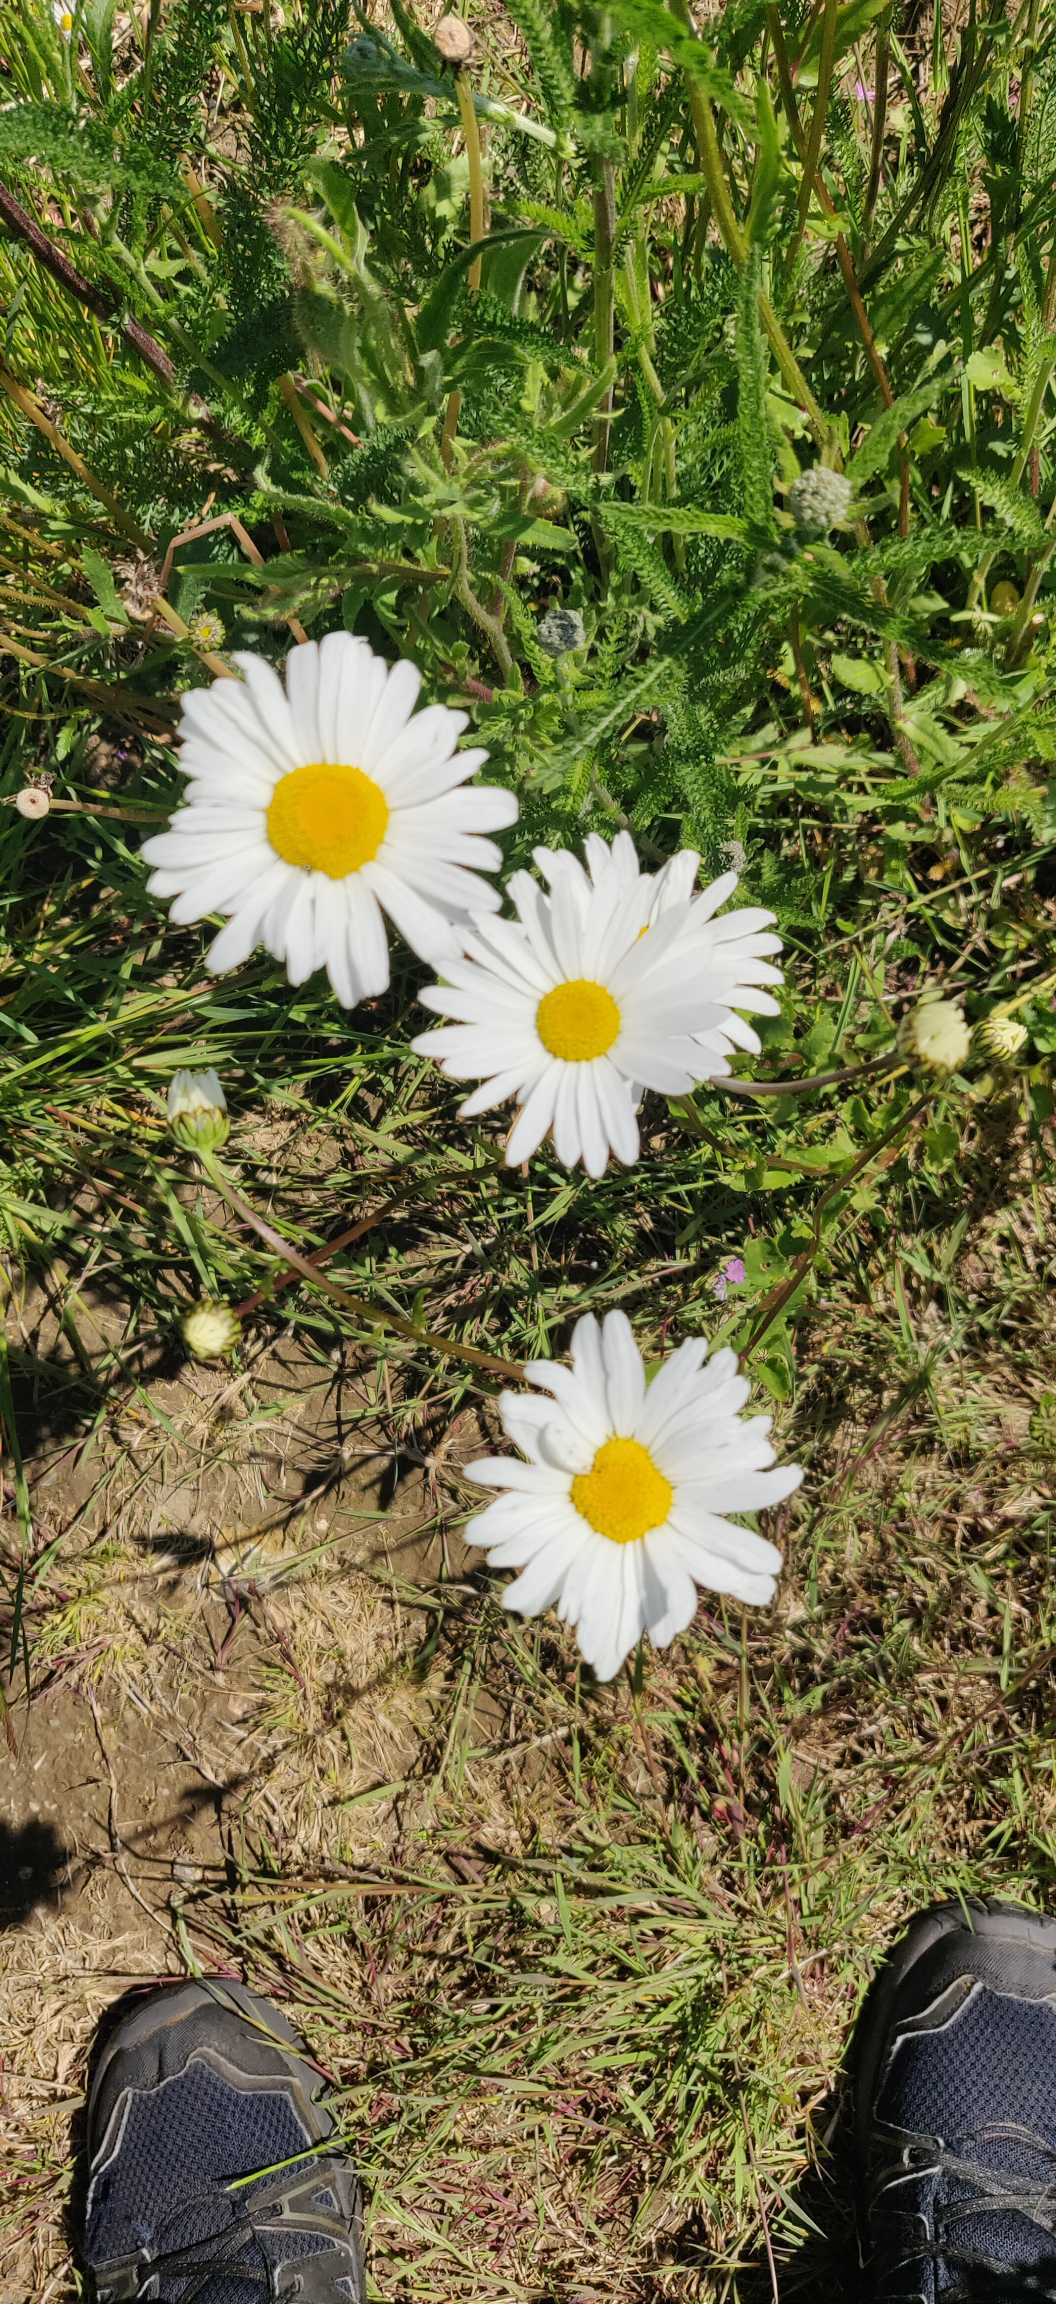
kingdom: Plantae
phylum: Tracheophyta
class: Magnoliopsida
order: Asterales
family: Asteraceae
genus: Leucanthemum
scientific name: Leucanthemum vulgare
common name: Hvid okseøje
